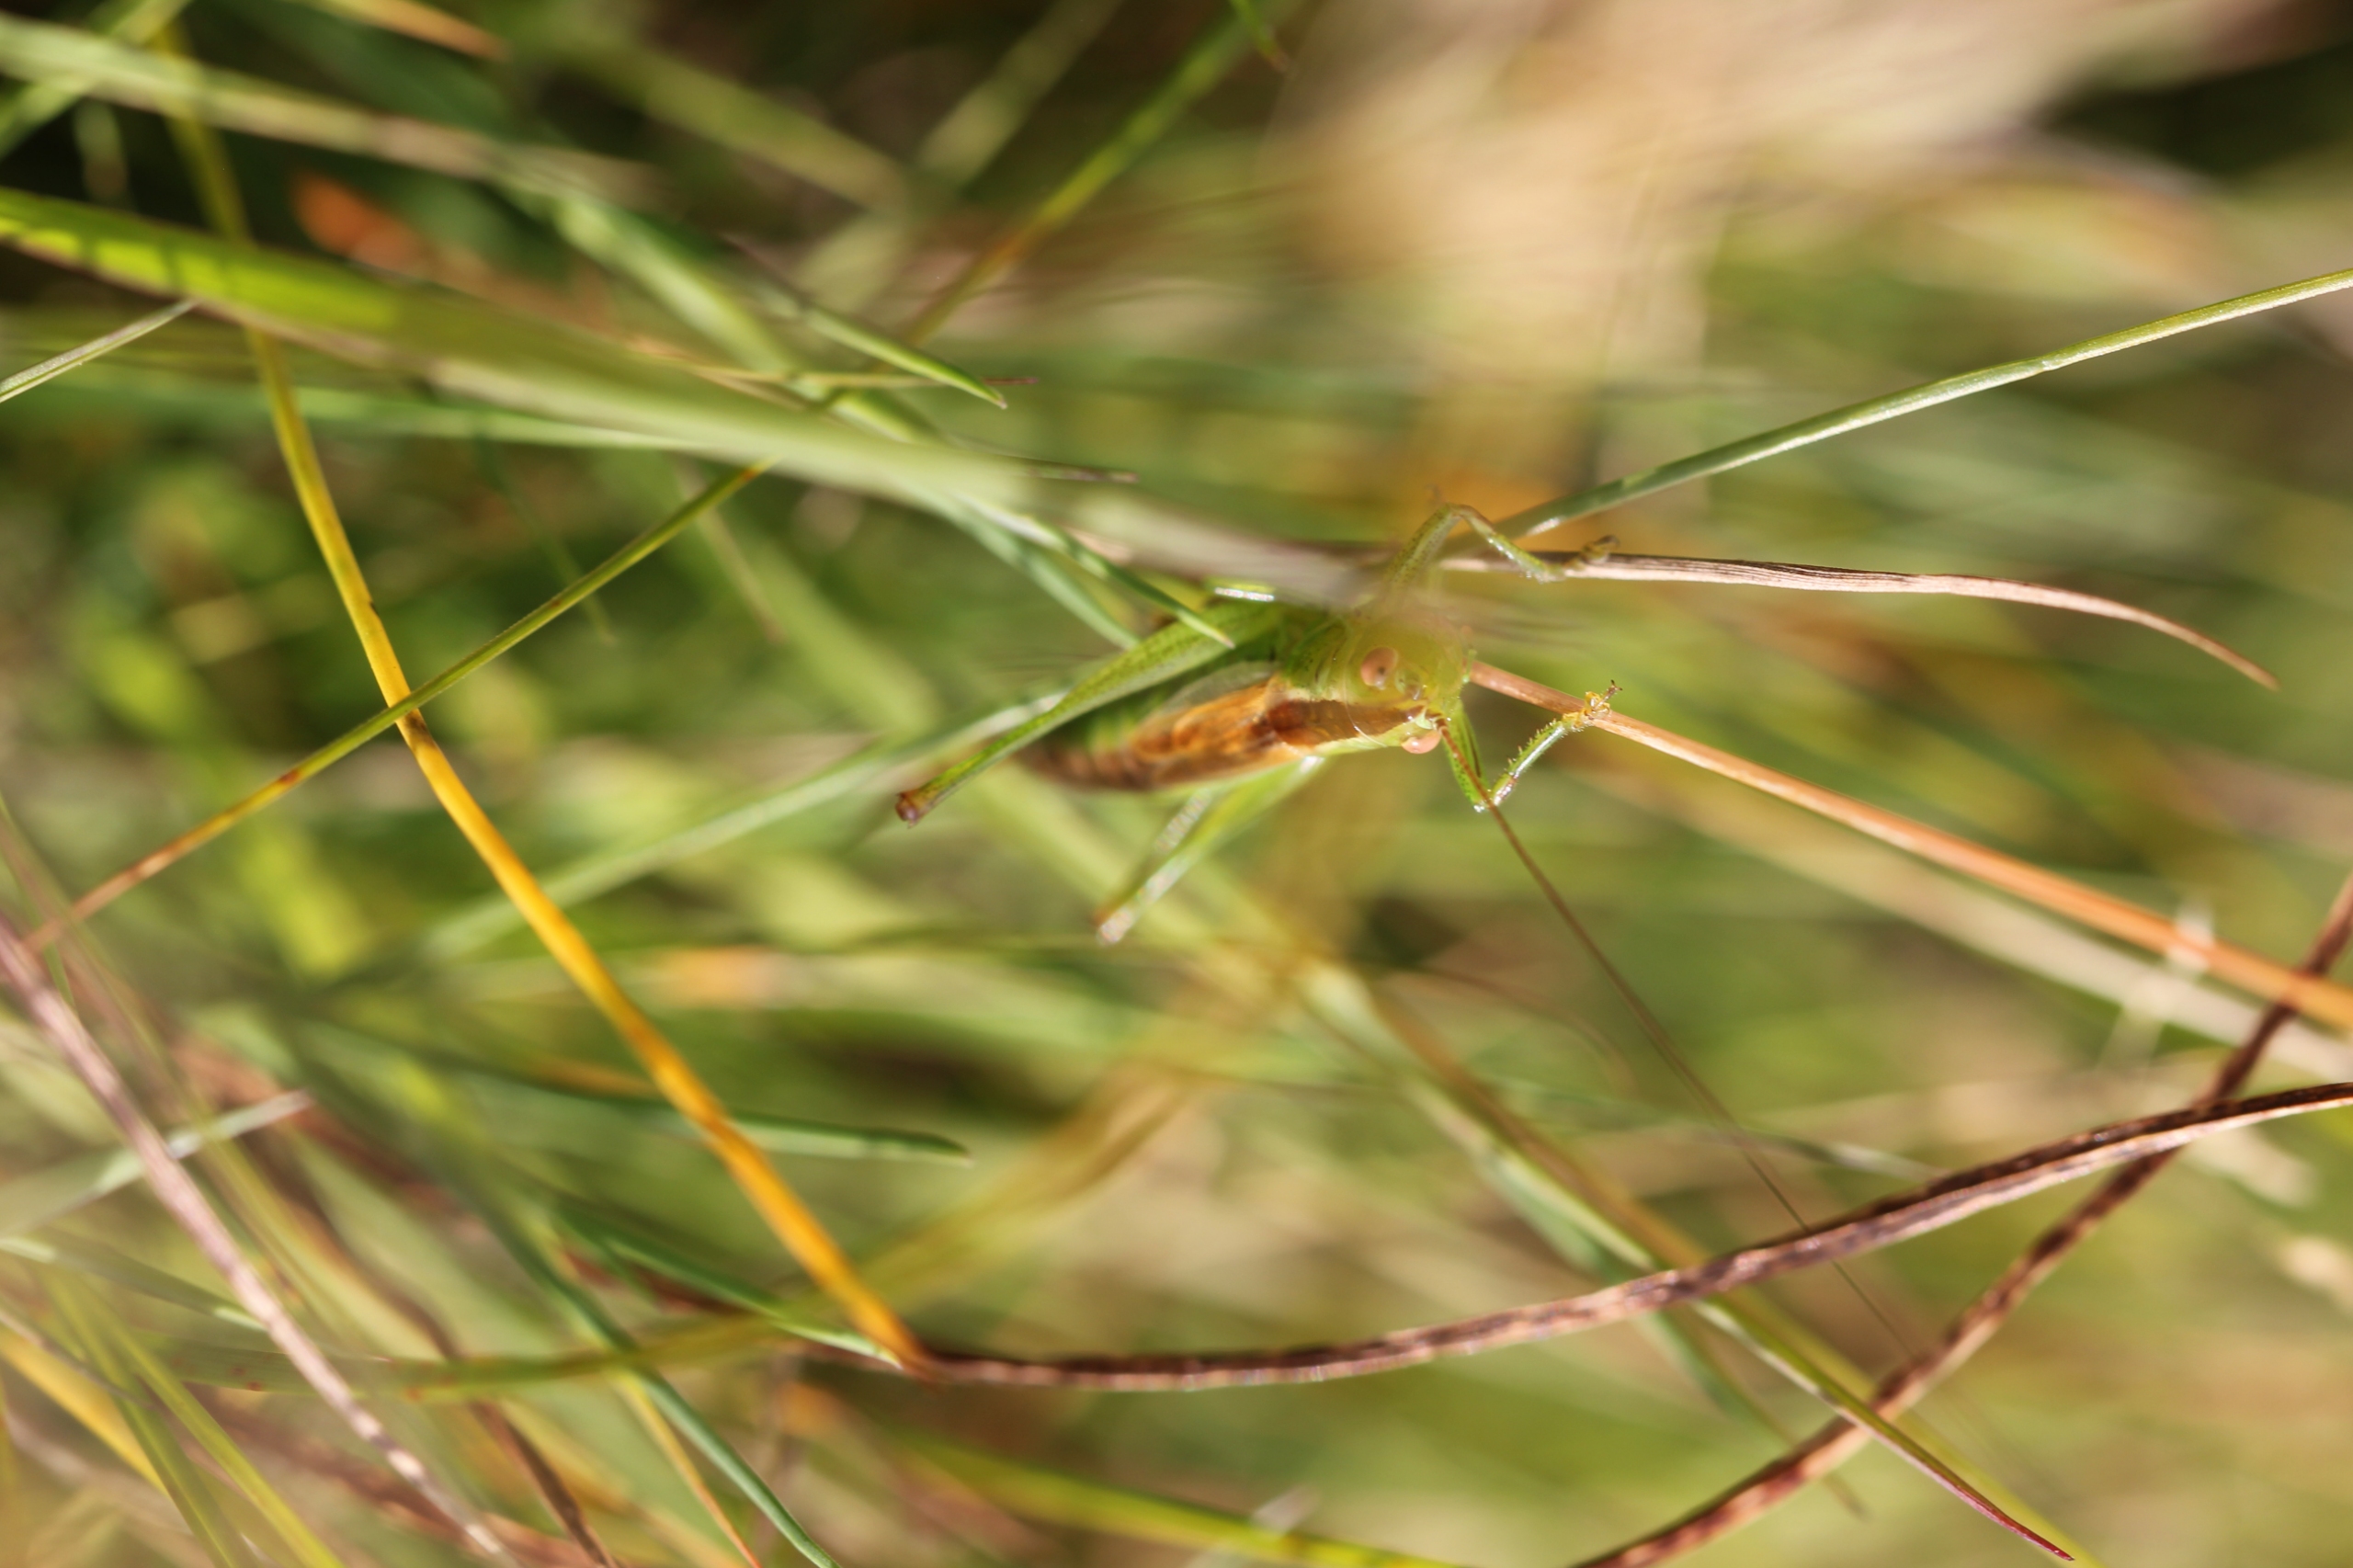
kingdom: Animalia
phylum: Arthropoda
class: Insecta
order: Orthoptera
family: Tettigoniidae
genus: Conocephalus
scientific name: Conocephalus dorsalis
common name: Sivgræshoppe
